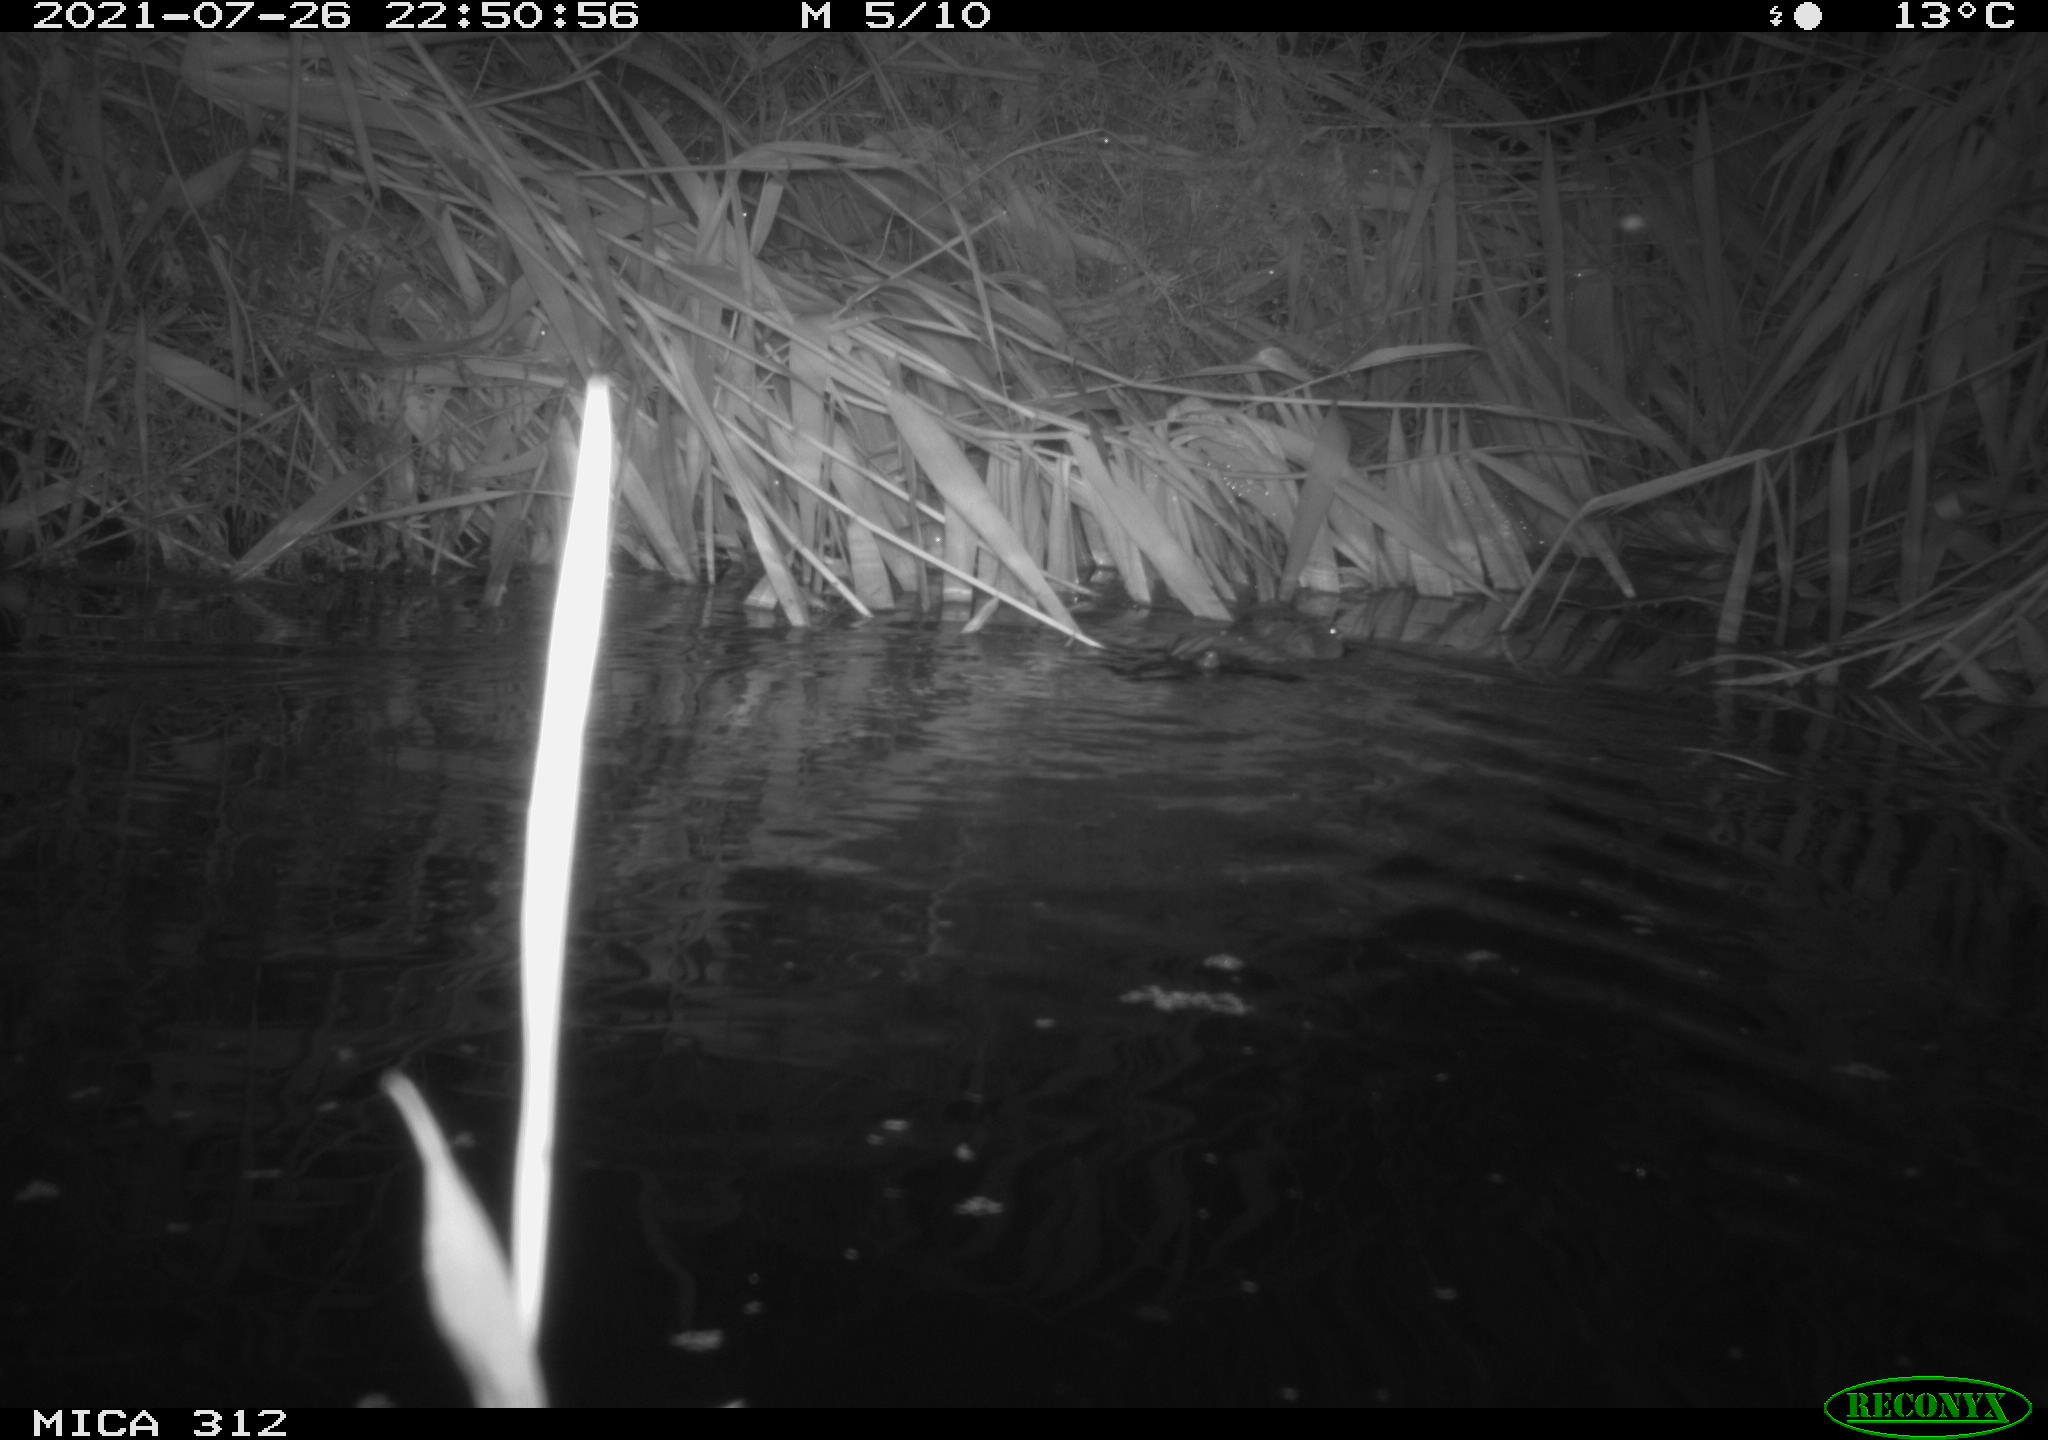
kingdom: Animalia
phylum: Chordata
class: Mammalia
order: Rodentia
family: Cricetidae
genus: Ondatra
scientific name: Ondatra zibethicus
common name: Muskrat
